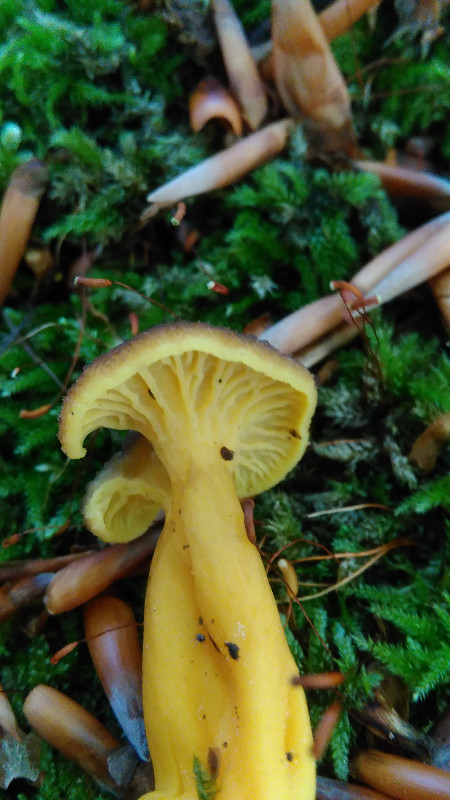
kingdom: Fungi
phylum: Basidiomycota
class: Agaricomycetes
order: Cantharellales
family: Hydnaceae
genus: Craterellus
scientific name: Craterellus tubaeformis
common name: tragt-kantarel
